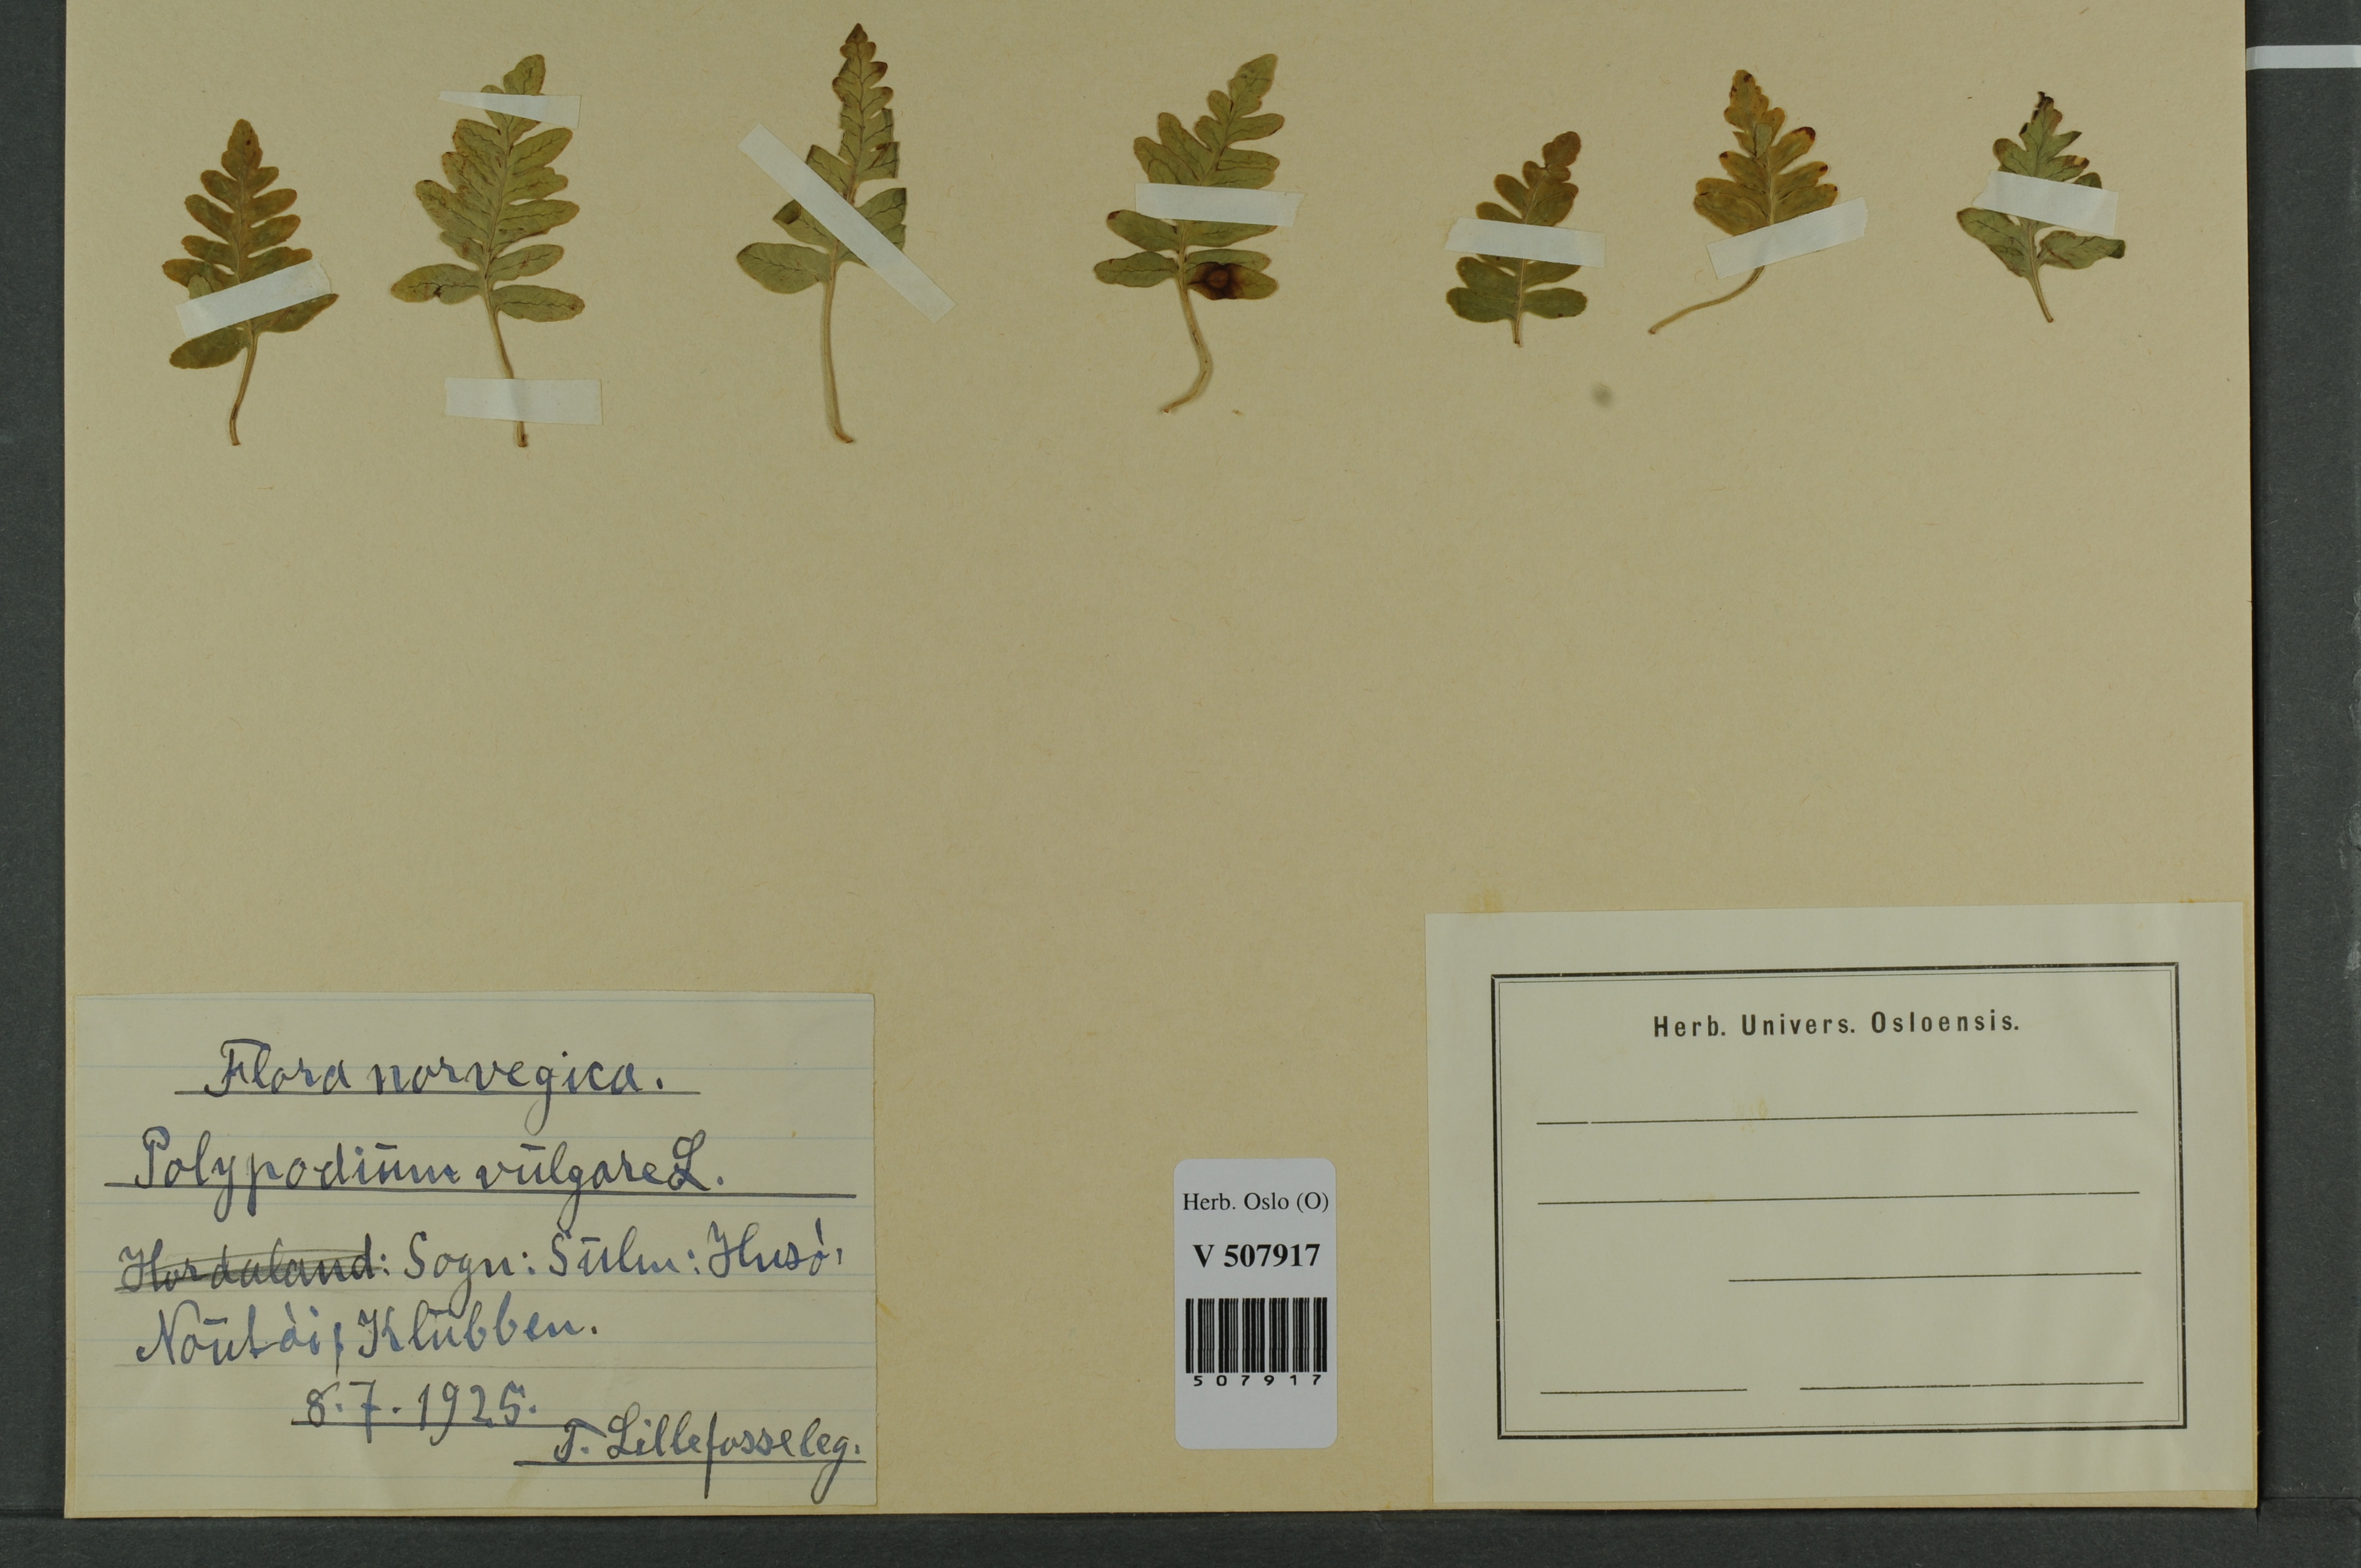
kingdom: Plantae
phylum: Tracheophyta
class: Polypodiopsida
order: Polypodiales
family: Polypodiaceae
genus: Polypodium
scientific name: Polypodium vulgare
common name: Common polypody
